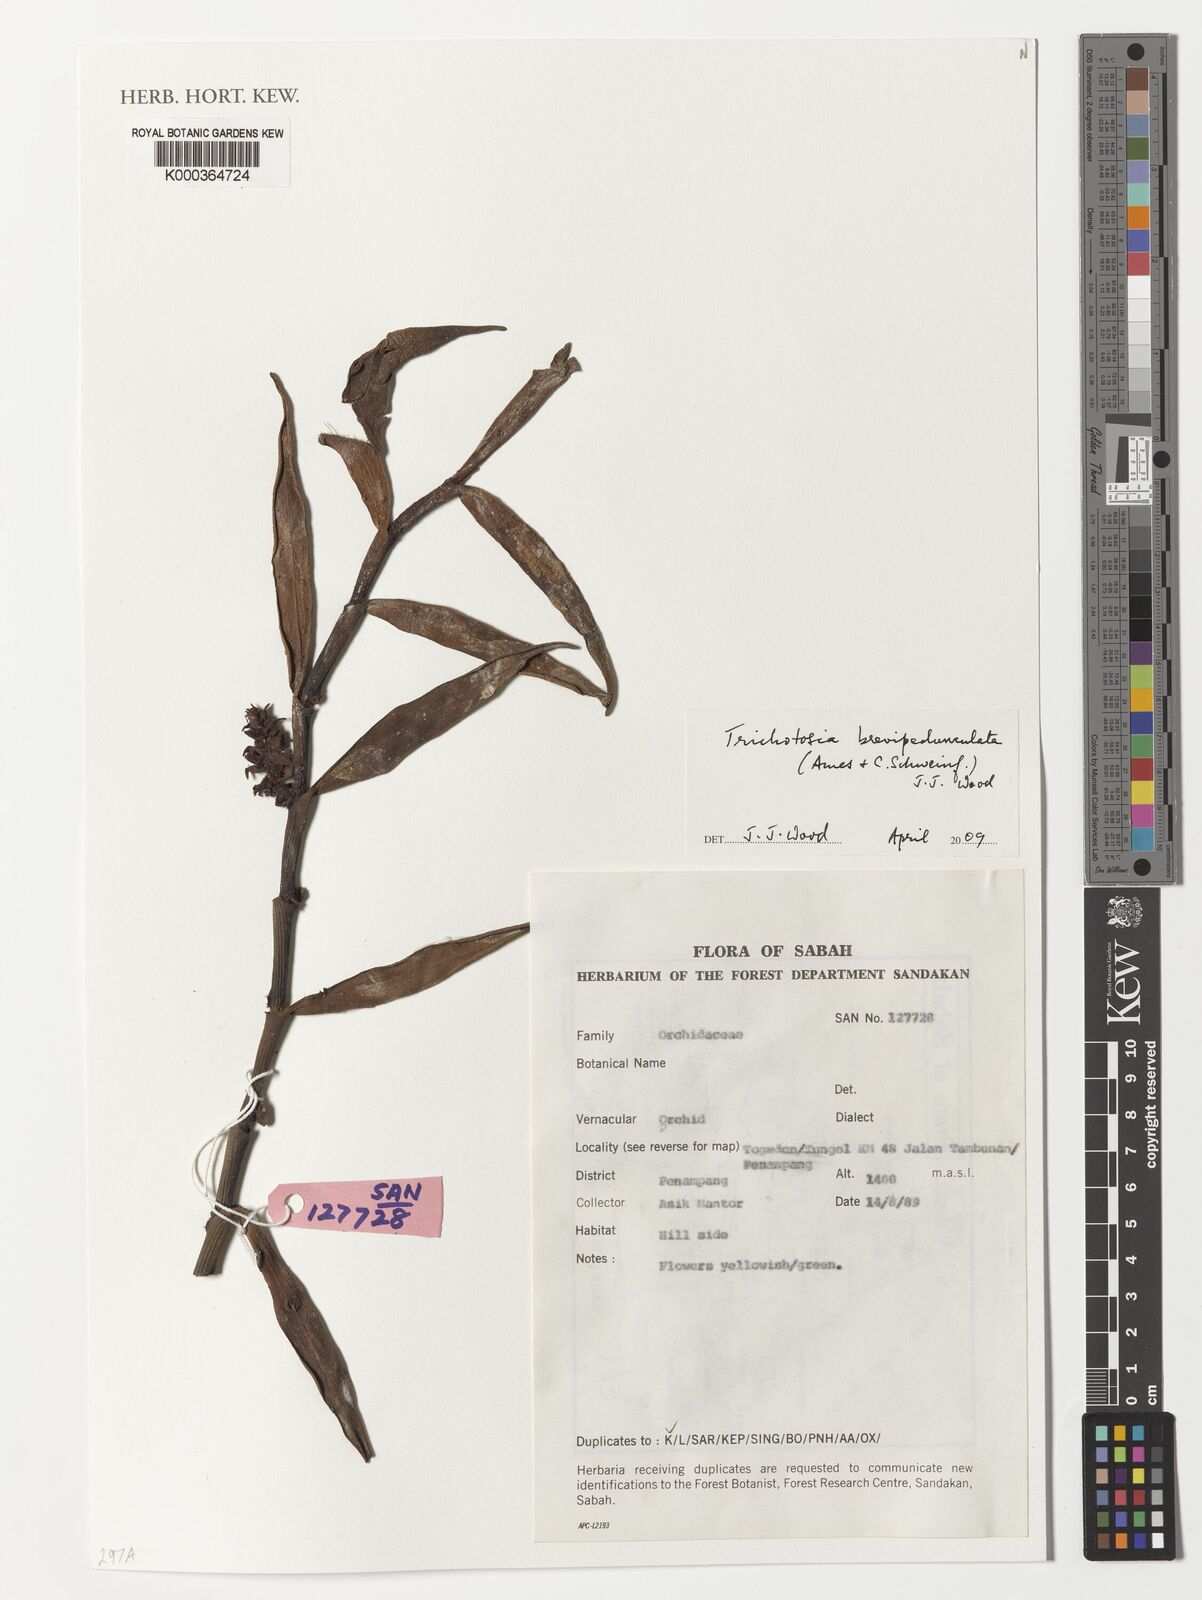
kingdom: Plantae
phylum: Tracheophyta
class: Liliopsida
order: Asparagales
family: Orchidaceae
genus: Trichotosia
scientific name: Trichotosia brevipedunculata
